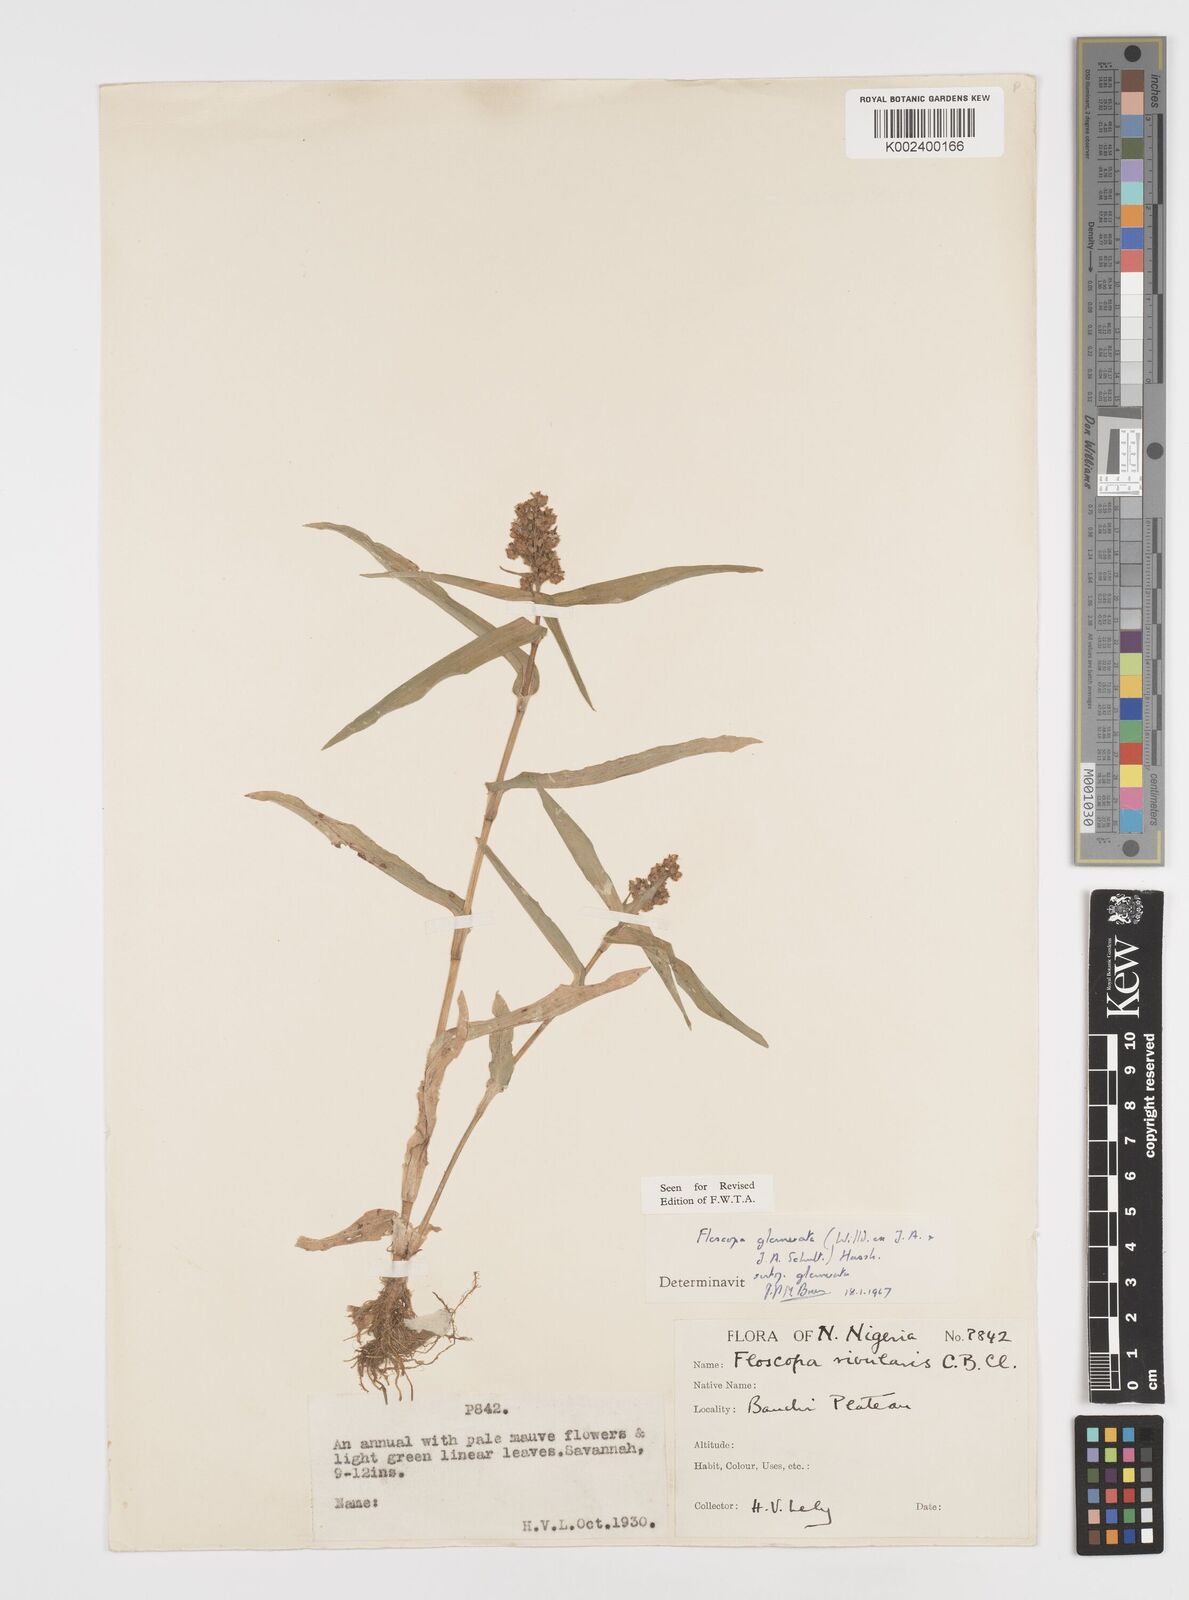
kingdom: Plantae
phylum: Tracheophyta
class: Liliopsida
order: Commelinales
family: Commelinaceae
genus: Floscopa
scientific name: Floscopa glomerata
